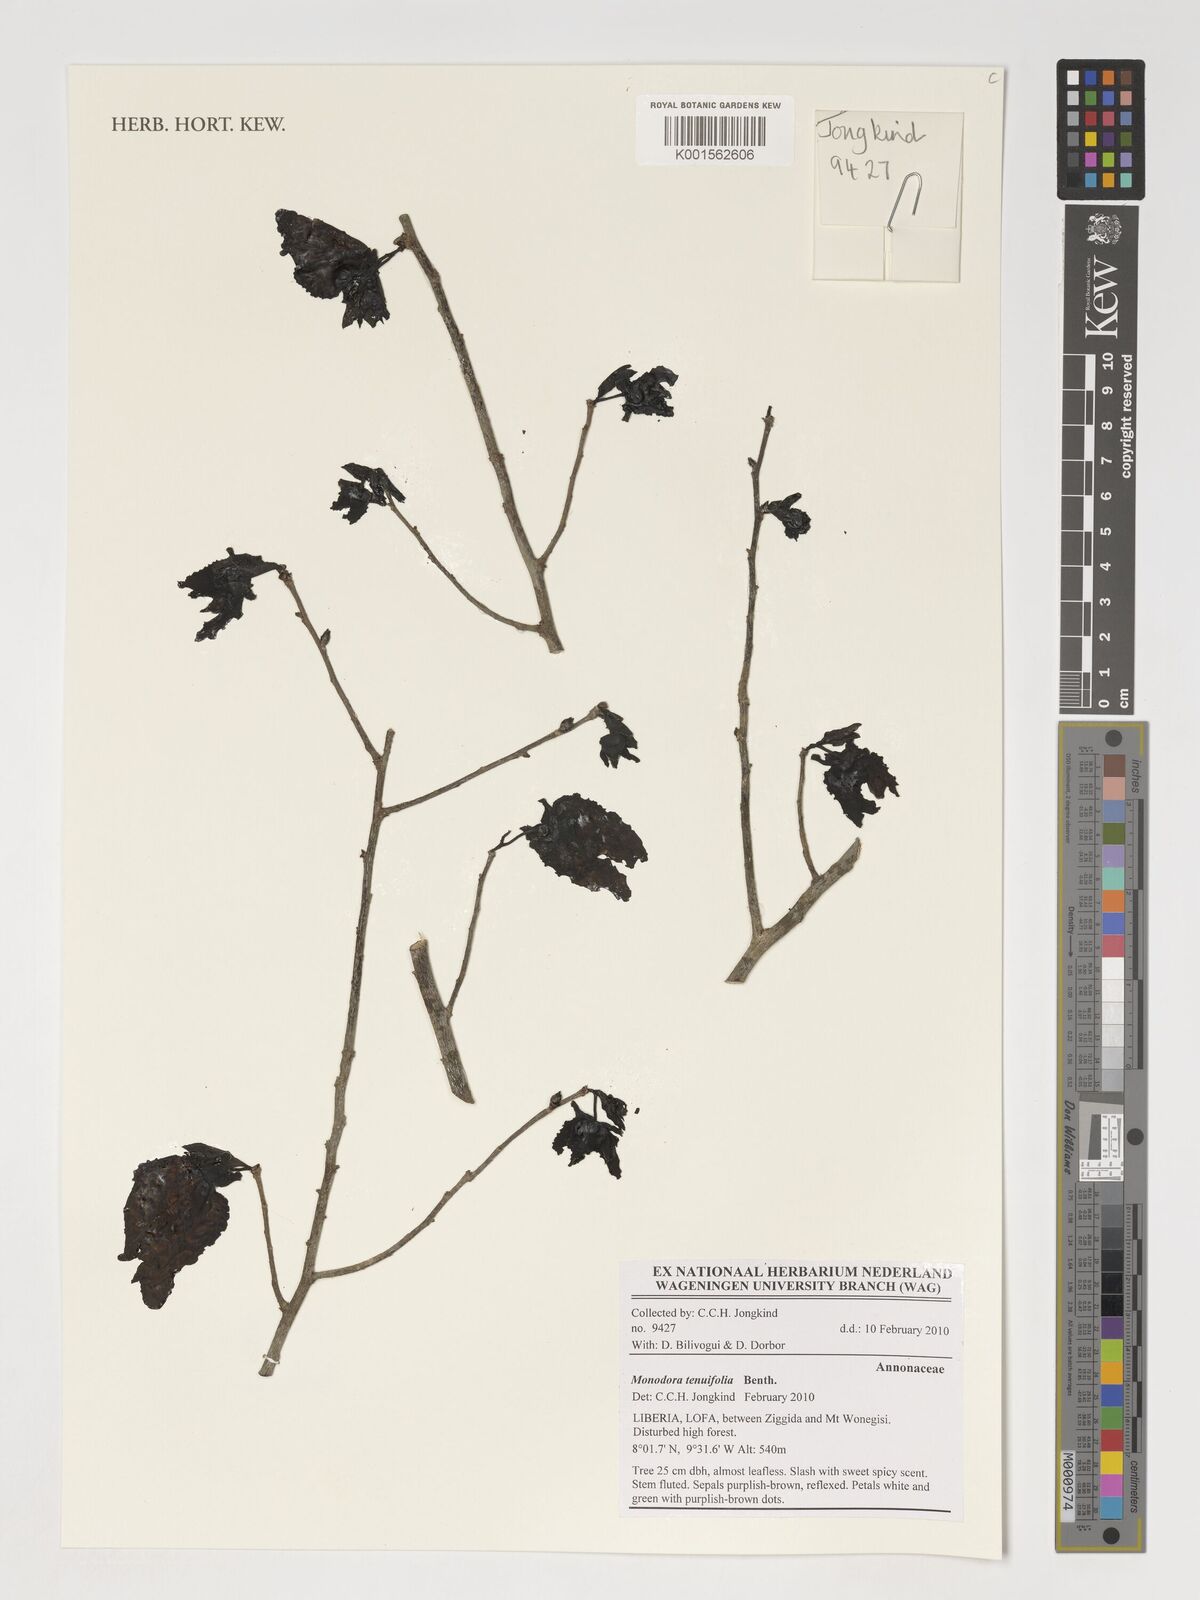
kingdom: Plantae
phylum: Tracheophyta
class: Magnoliopsida
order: Magnoliales
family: Annonaceae
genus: Monodora
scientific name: Monodora tenuifolia
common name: Orchidtree
